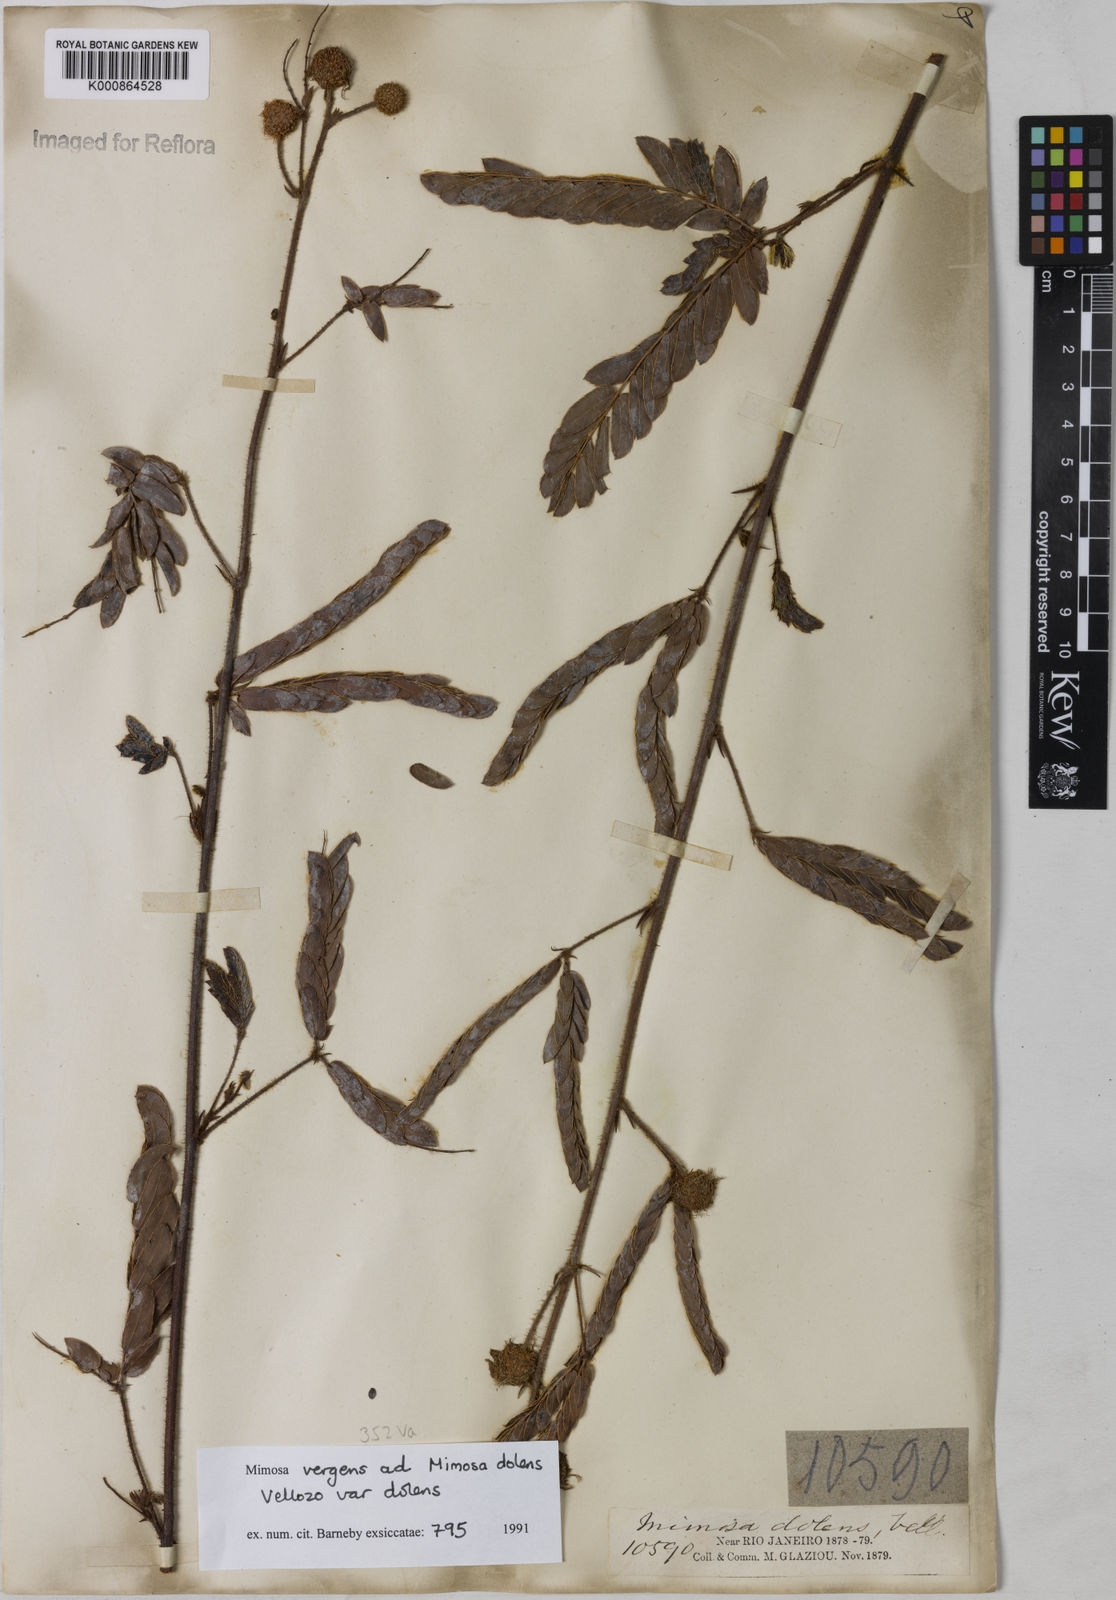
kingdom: Plantae
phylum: Tracheophyta
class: Magnoliopsida
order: Fabales
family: Fabaceae
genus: Mimosa
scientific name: Mimosa dolens
